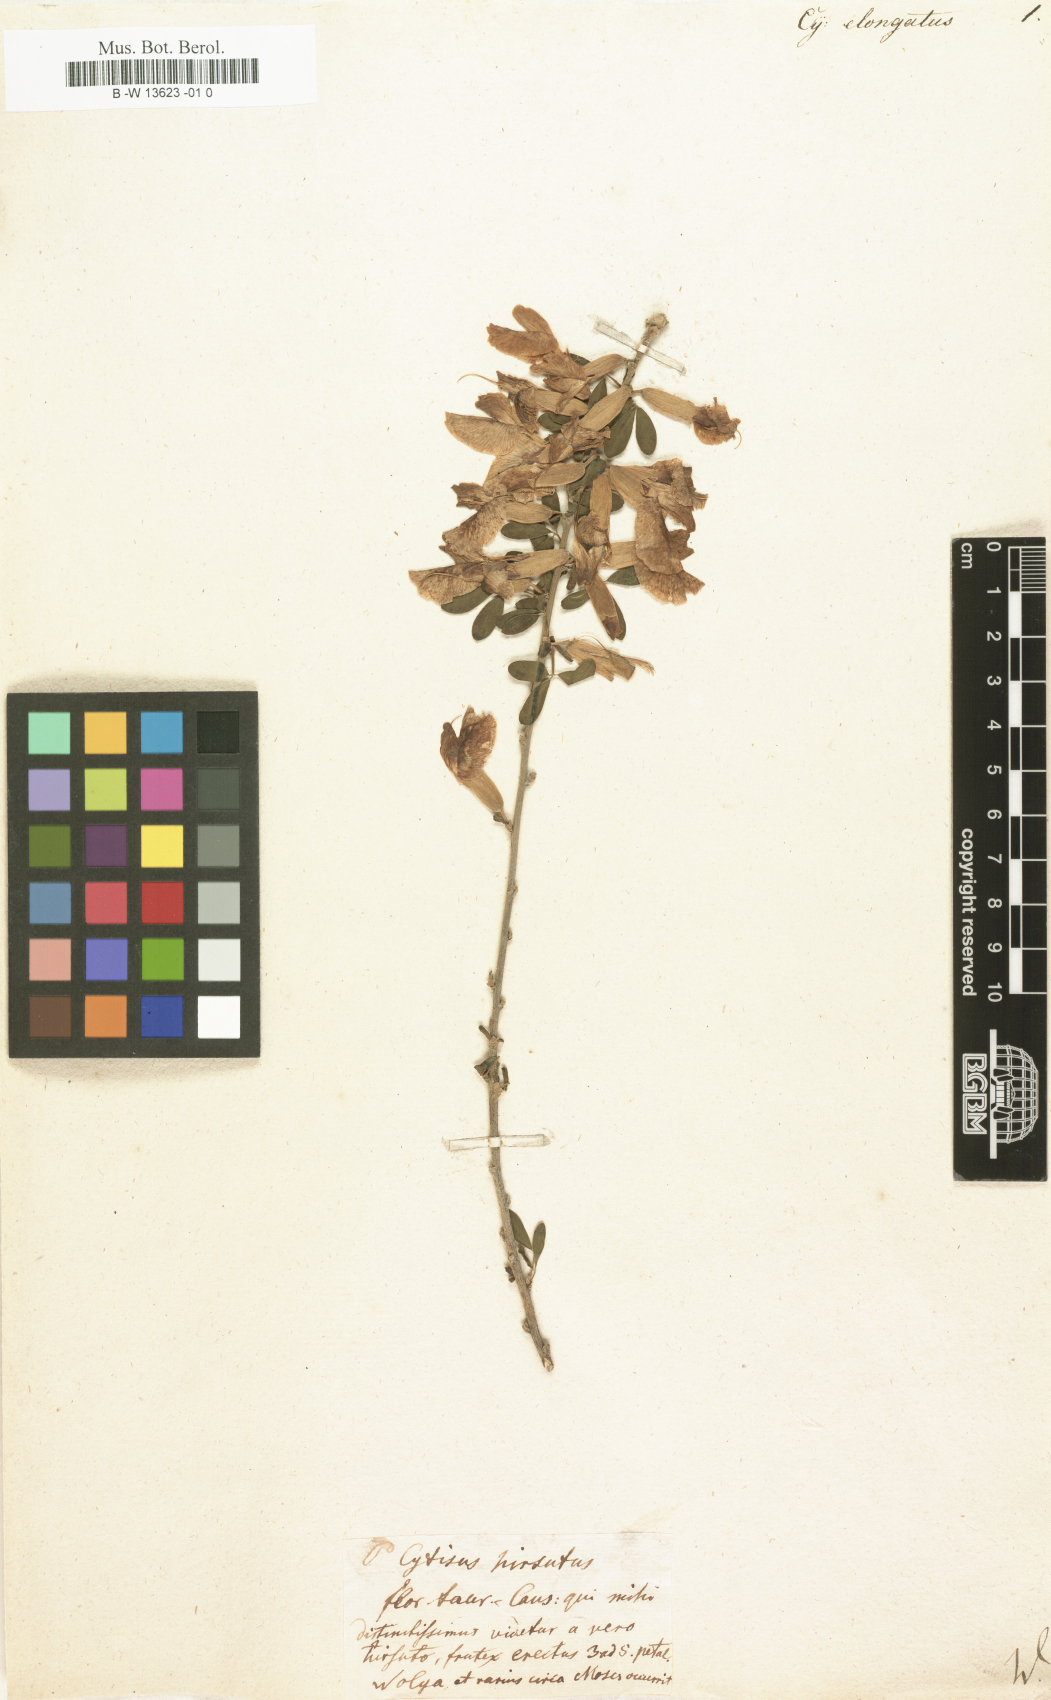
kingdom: Plantae
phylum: Tracheophyta
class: Magnoliopsida
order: Fabales
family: Fabaceae
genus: Chamaecytisus
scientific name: Chamaecytisus
